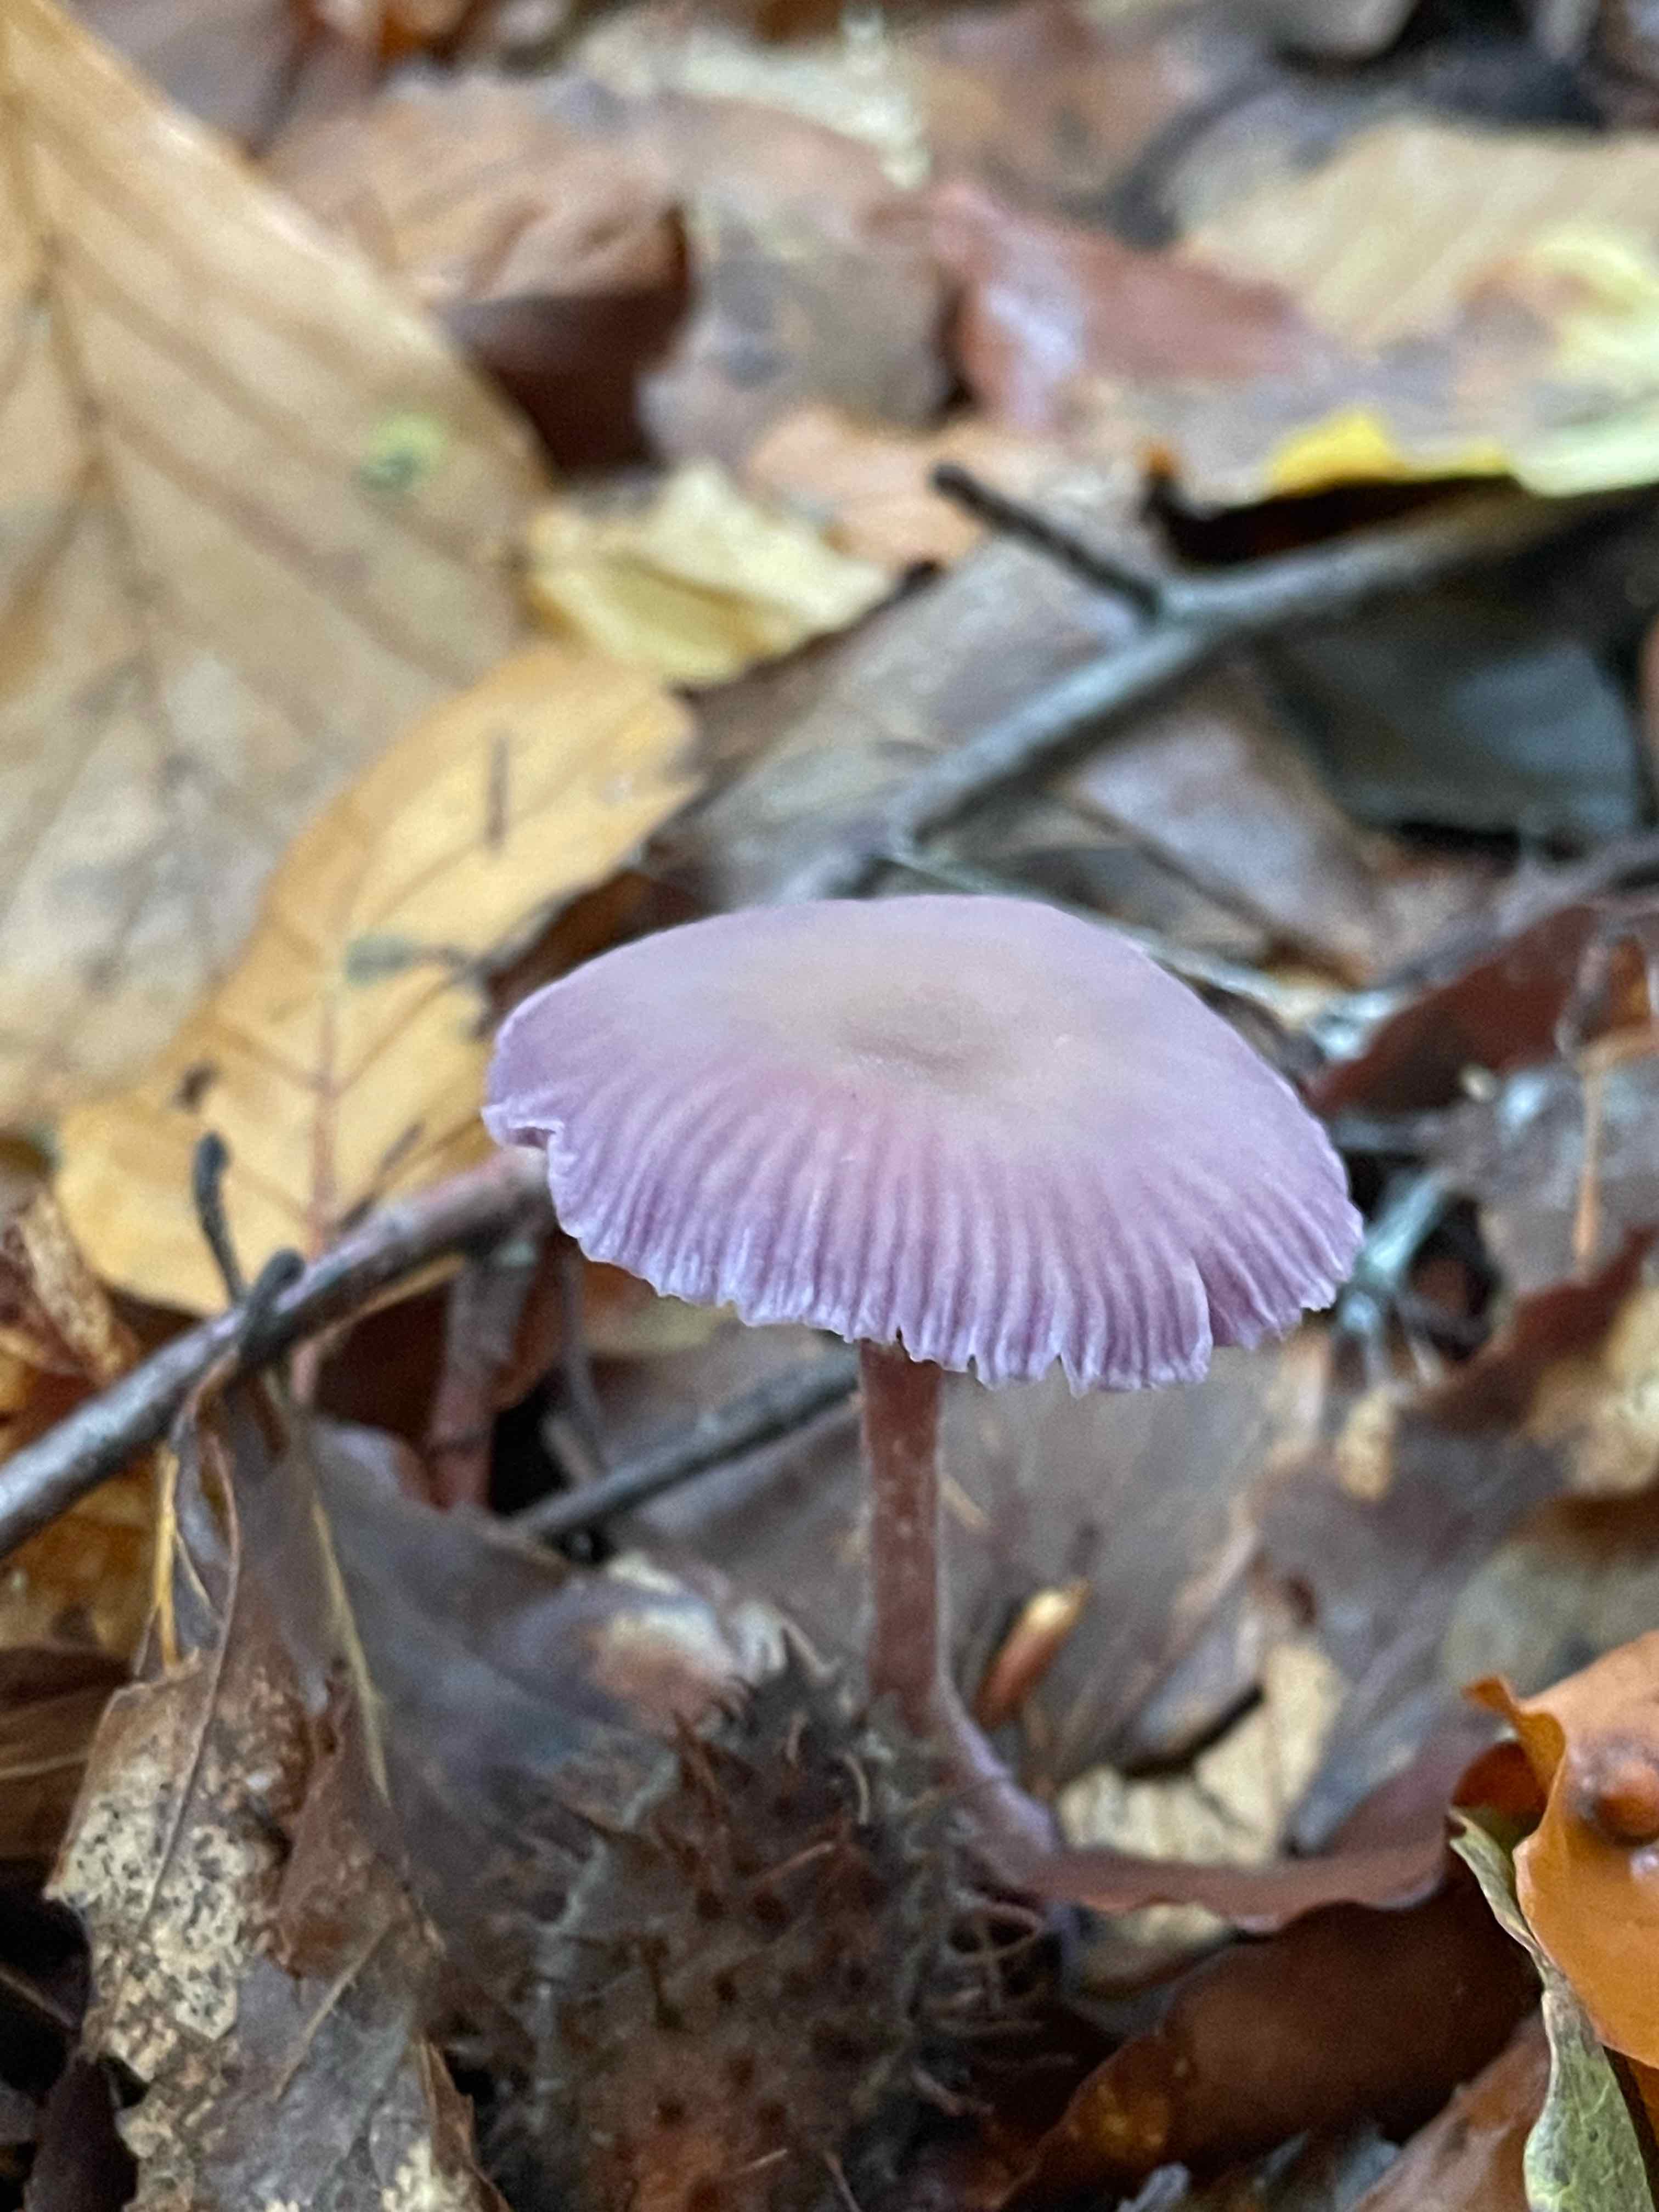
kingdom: Fungi
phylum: Basidiomycota
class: Agaricomycetes
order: Agaricales
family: Hydnangiaceae
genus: Laccaria
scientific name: Laccaria amethystina
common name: violet ametysthat
